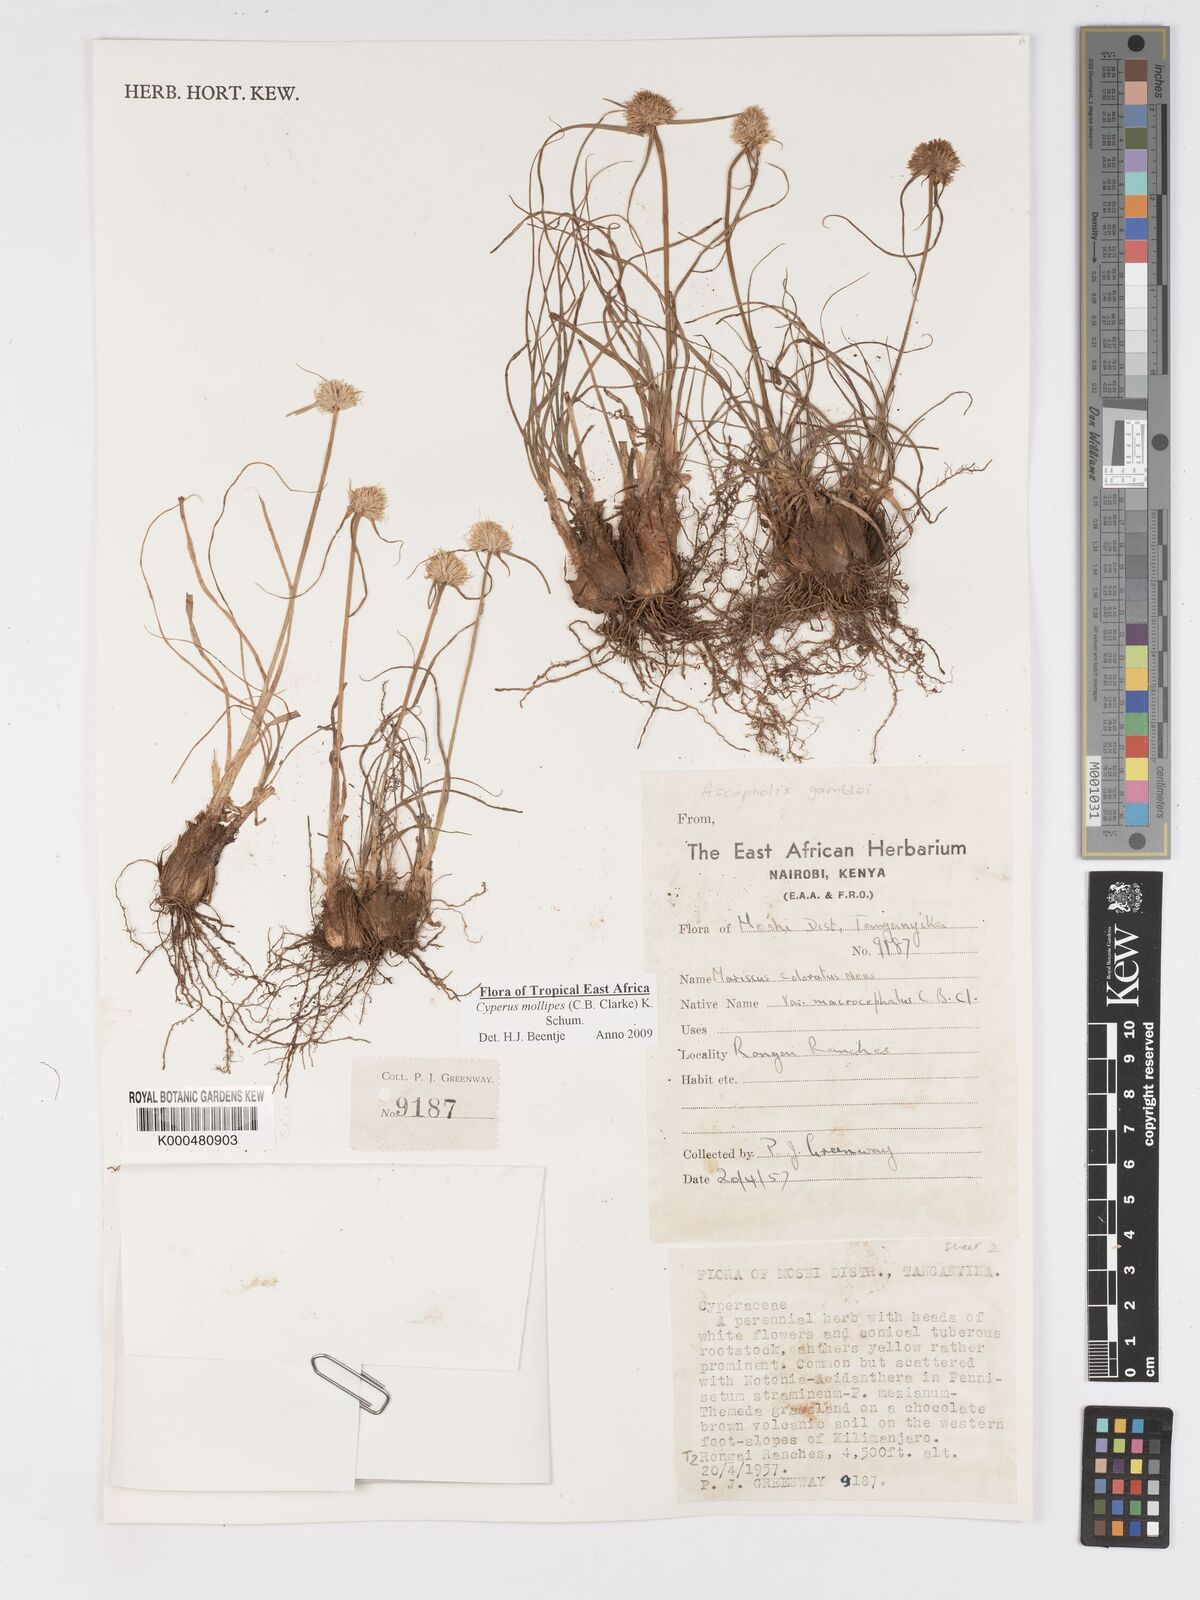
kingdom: Plantae
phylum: Tracheophyta
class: Liliopsida
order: Poales
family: Cyperaceae
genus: Cyperus
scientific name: Cyperus mollipes
